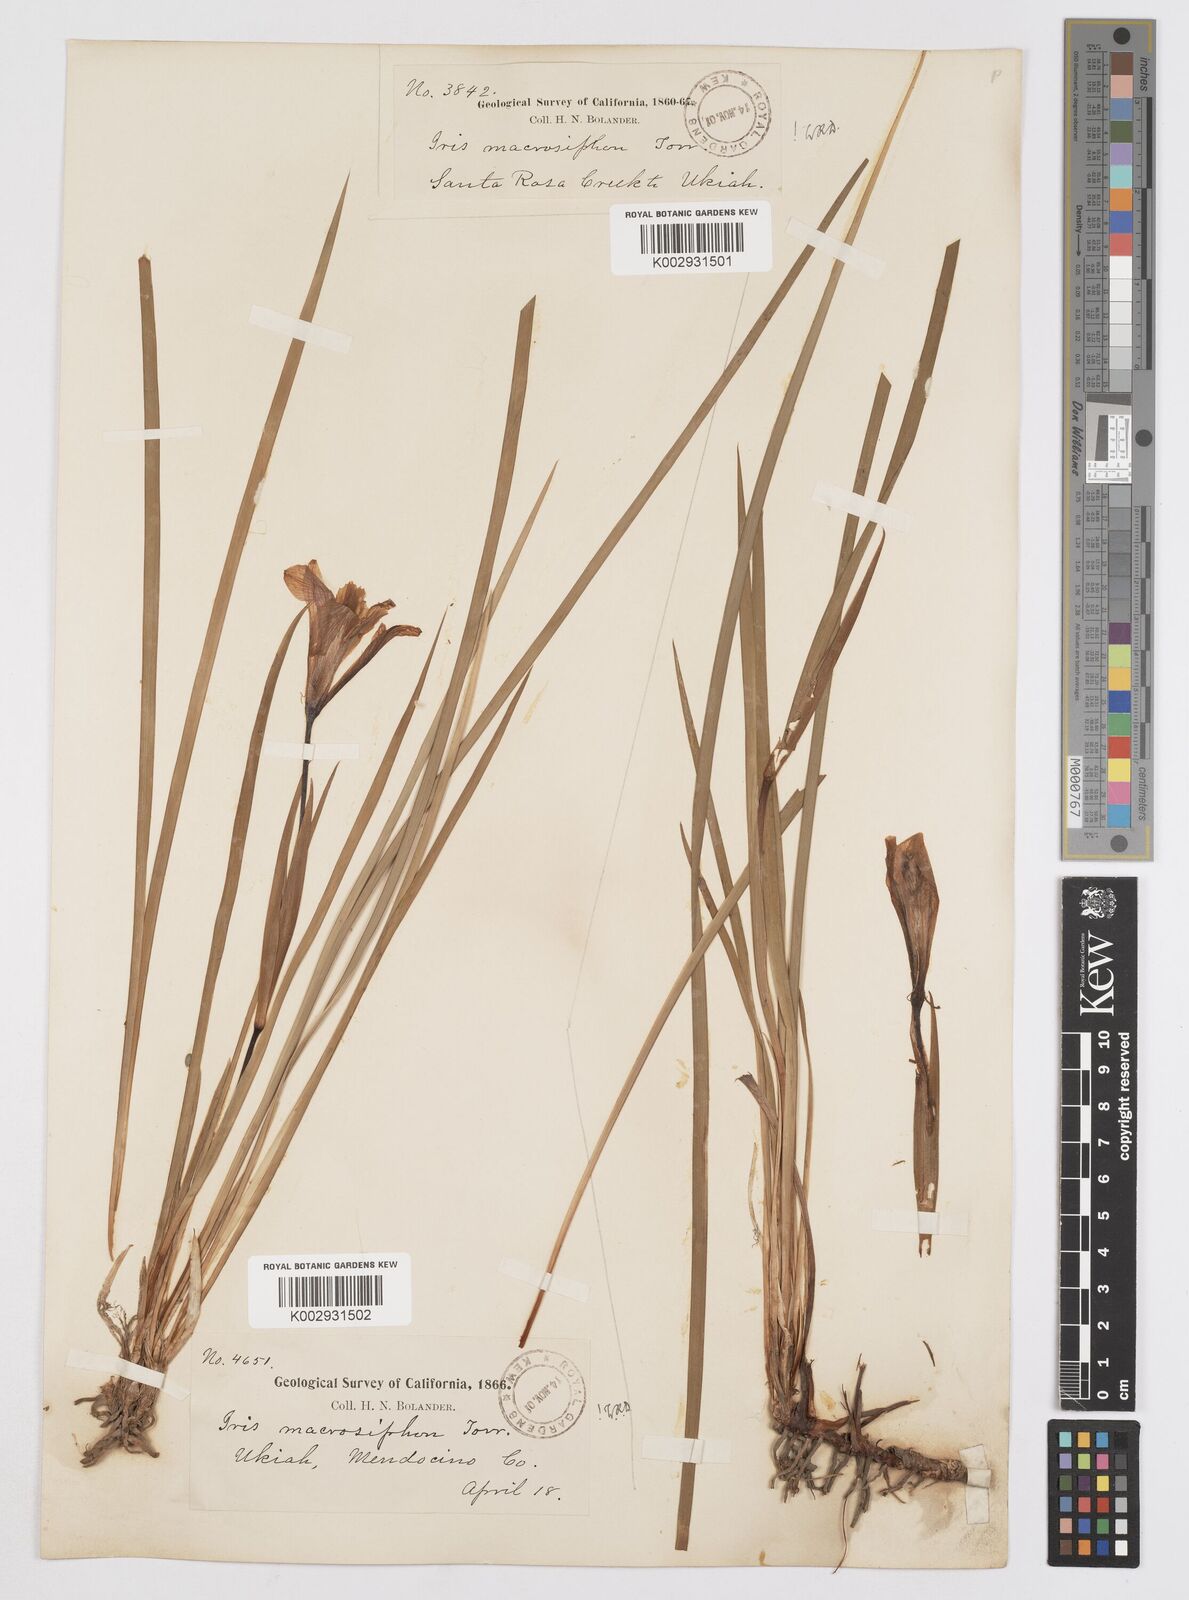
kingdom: Plantae
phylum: Tracheophyta
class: Liliopsida
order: Asparagales
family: Iridaceae
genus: Iris
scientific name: Iris macrosiphon
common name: Ground iris
